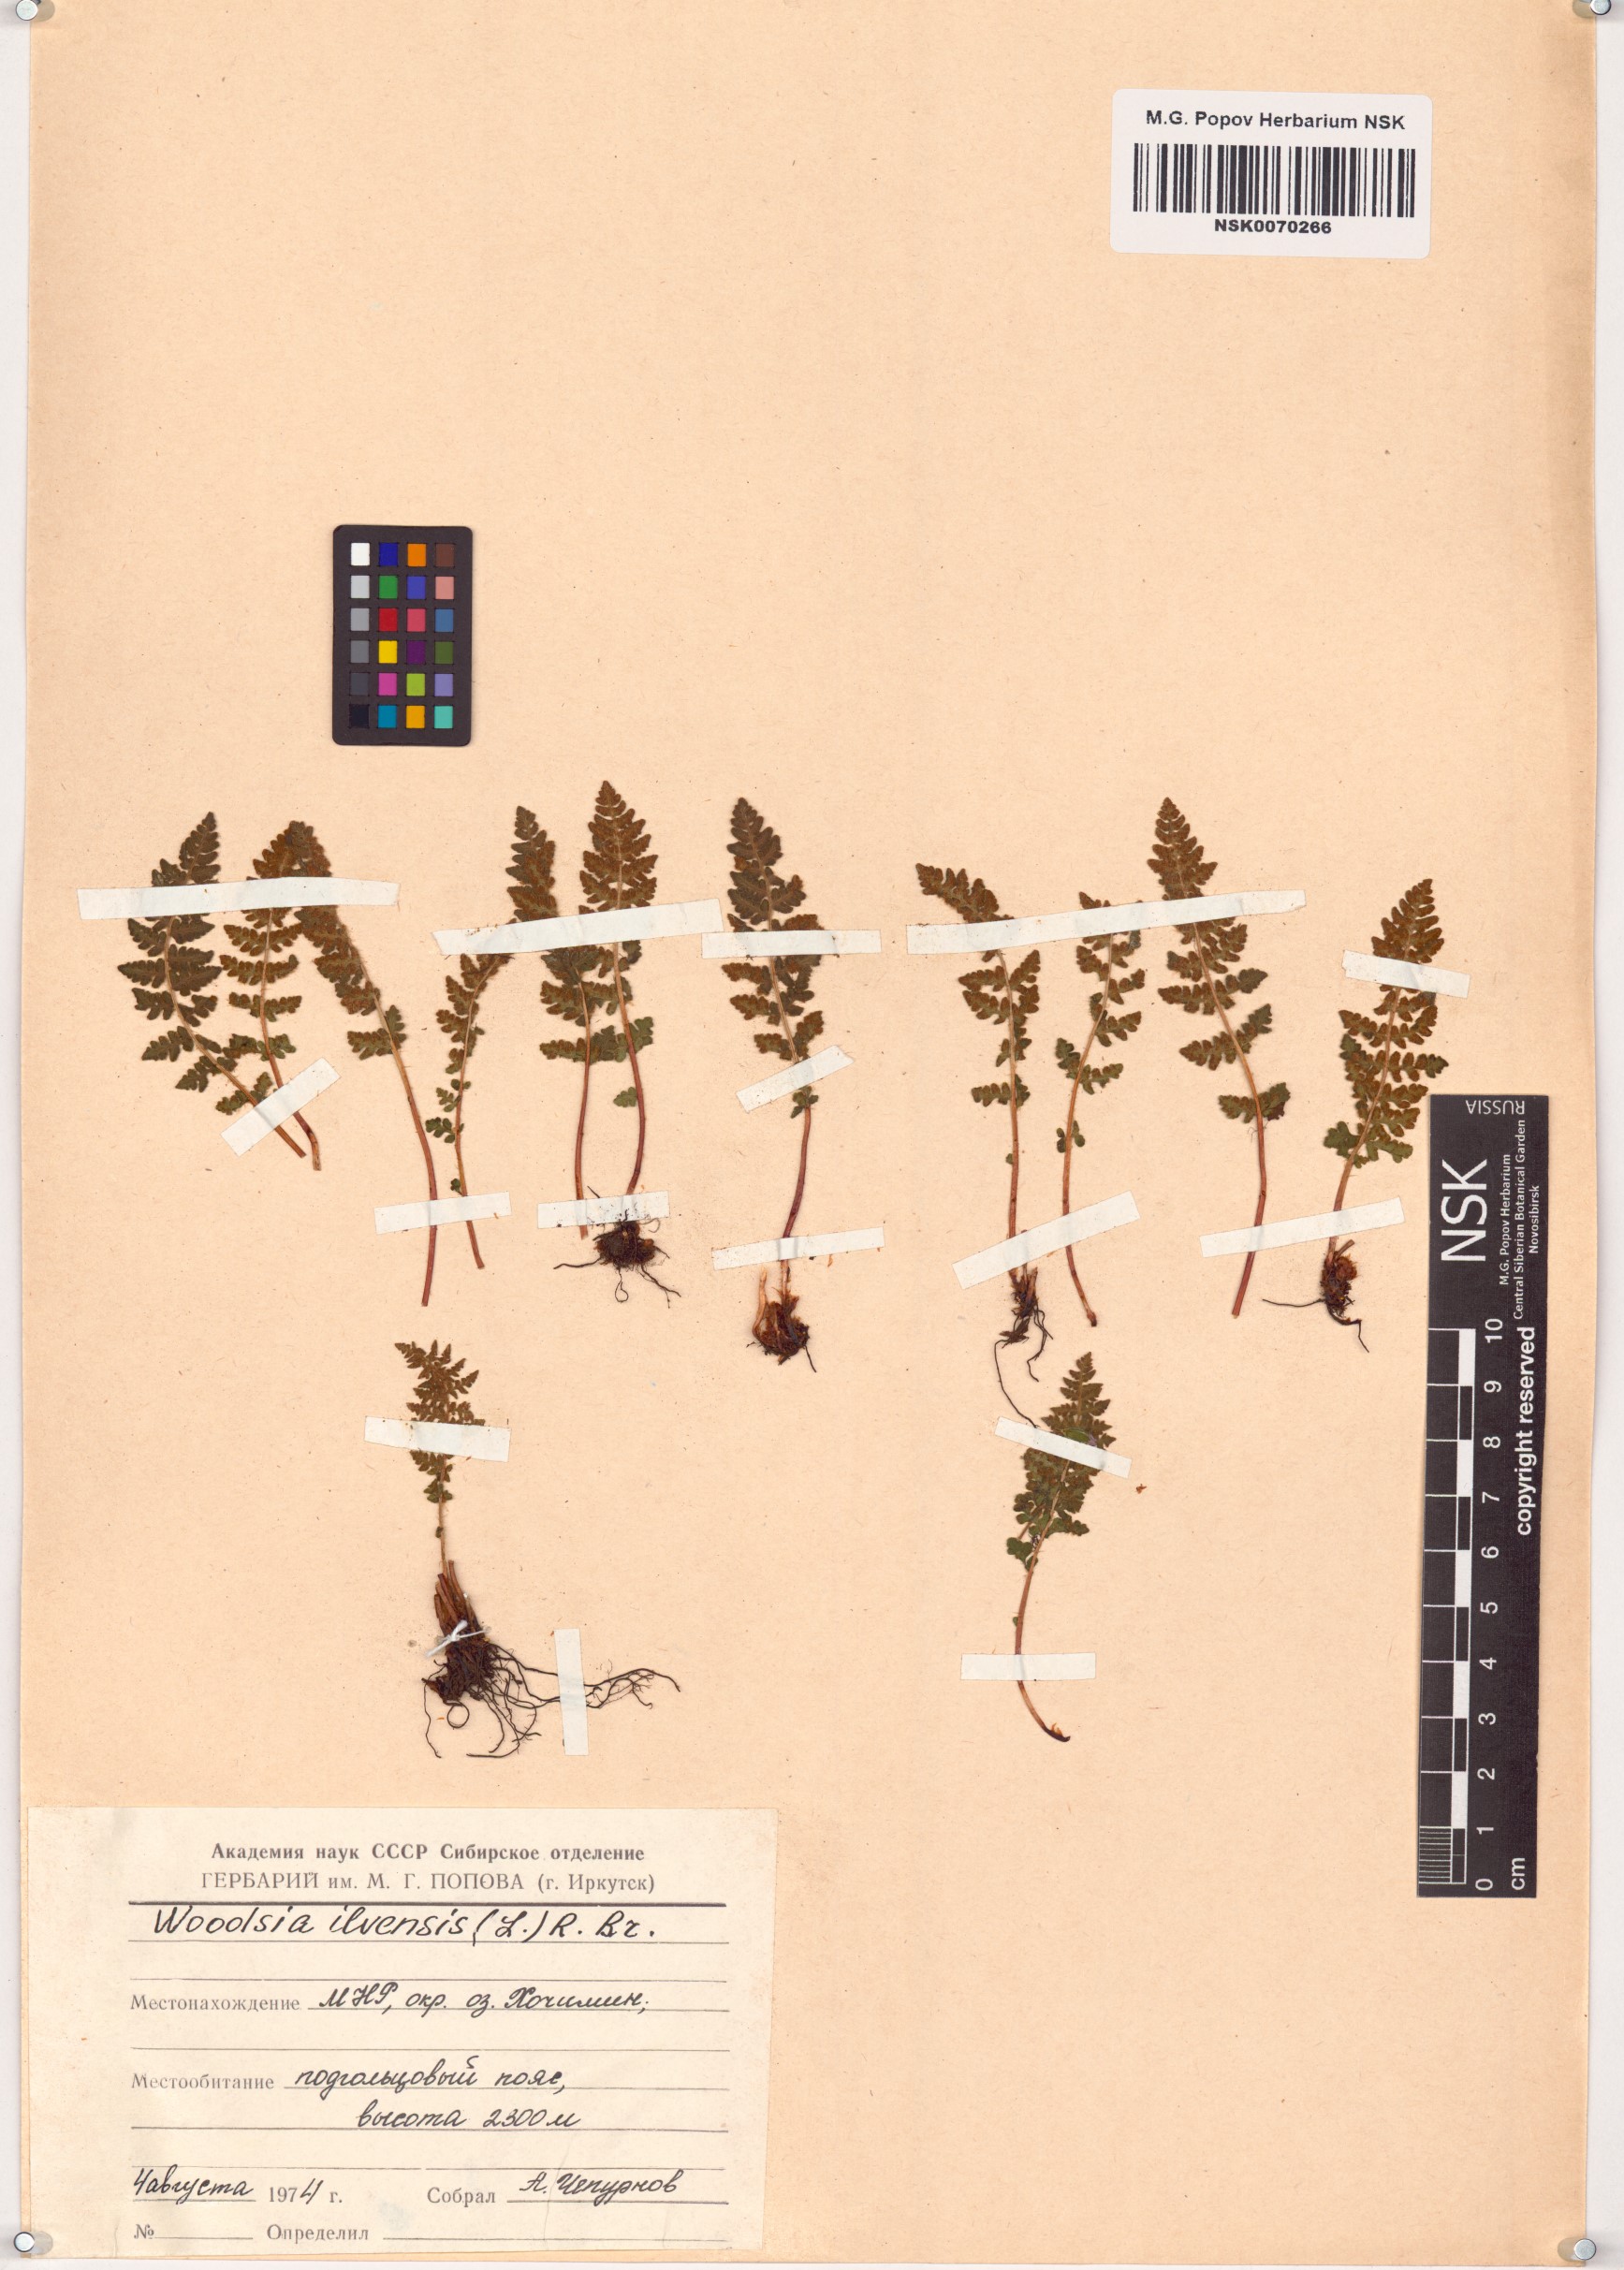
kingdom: Plantae
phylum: Tracheophyta
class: Polypodiopsida
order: Polypodiales
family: Woodsiaceae
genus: Woodsia
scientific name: Woodsia ilvensis
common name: Fragrant woodsia
